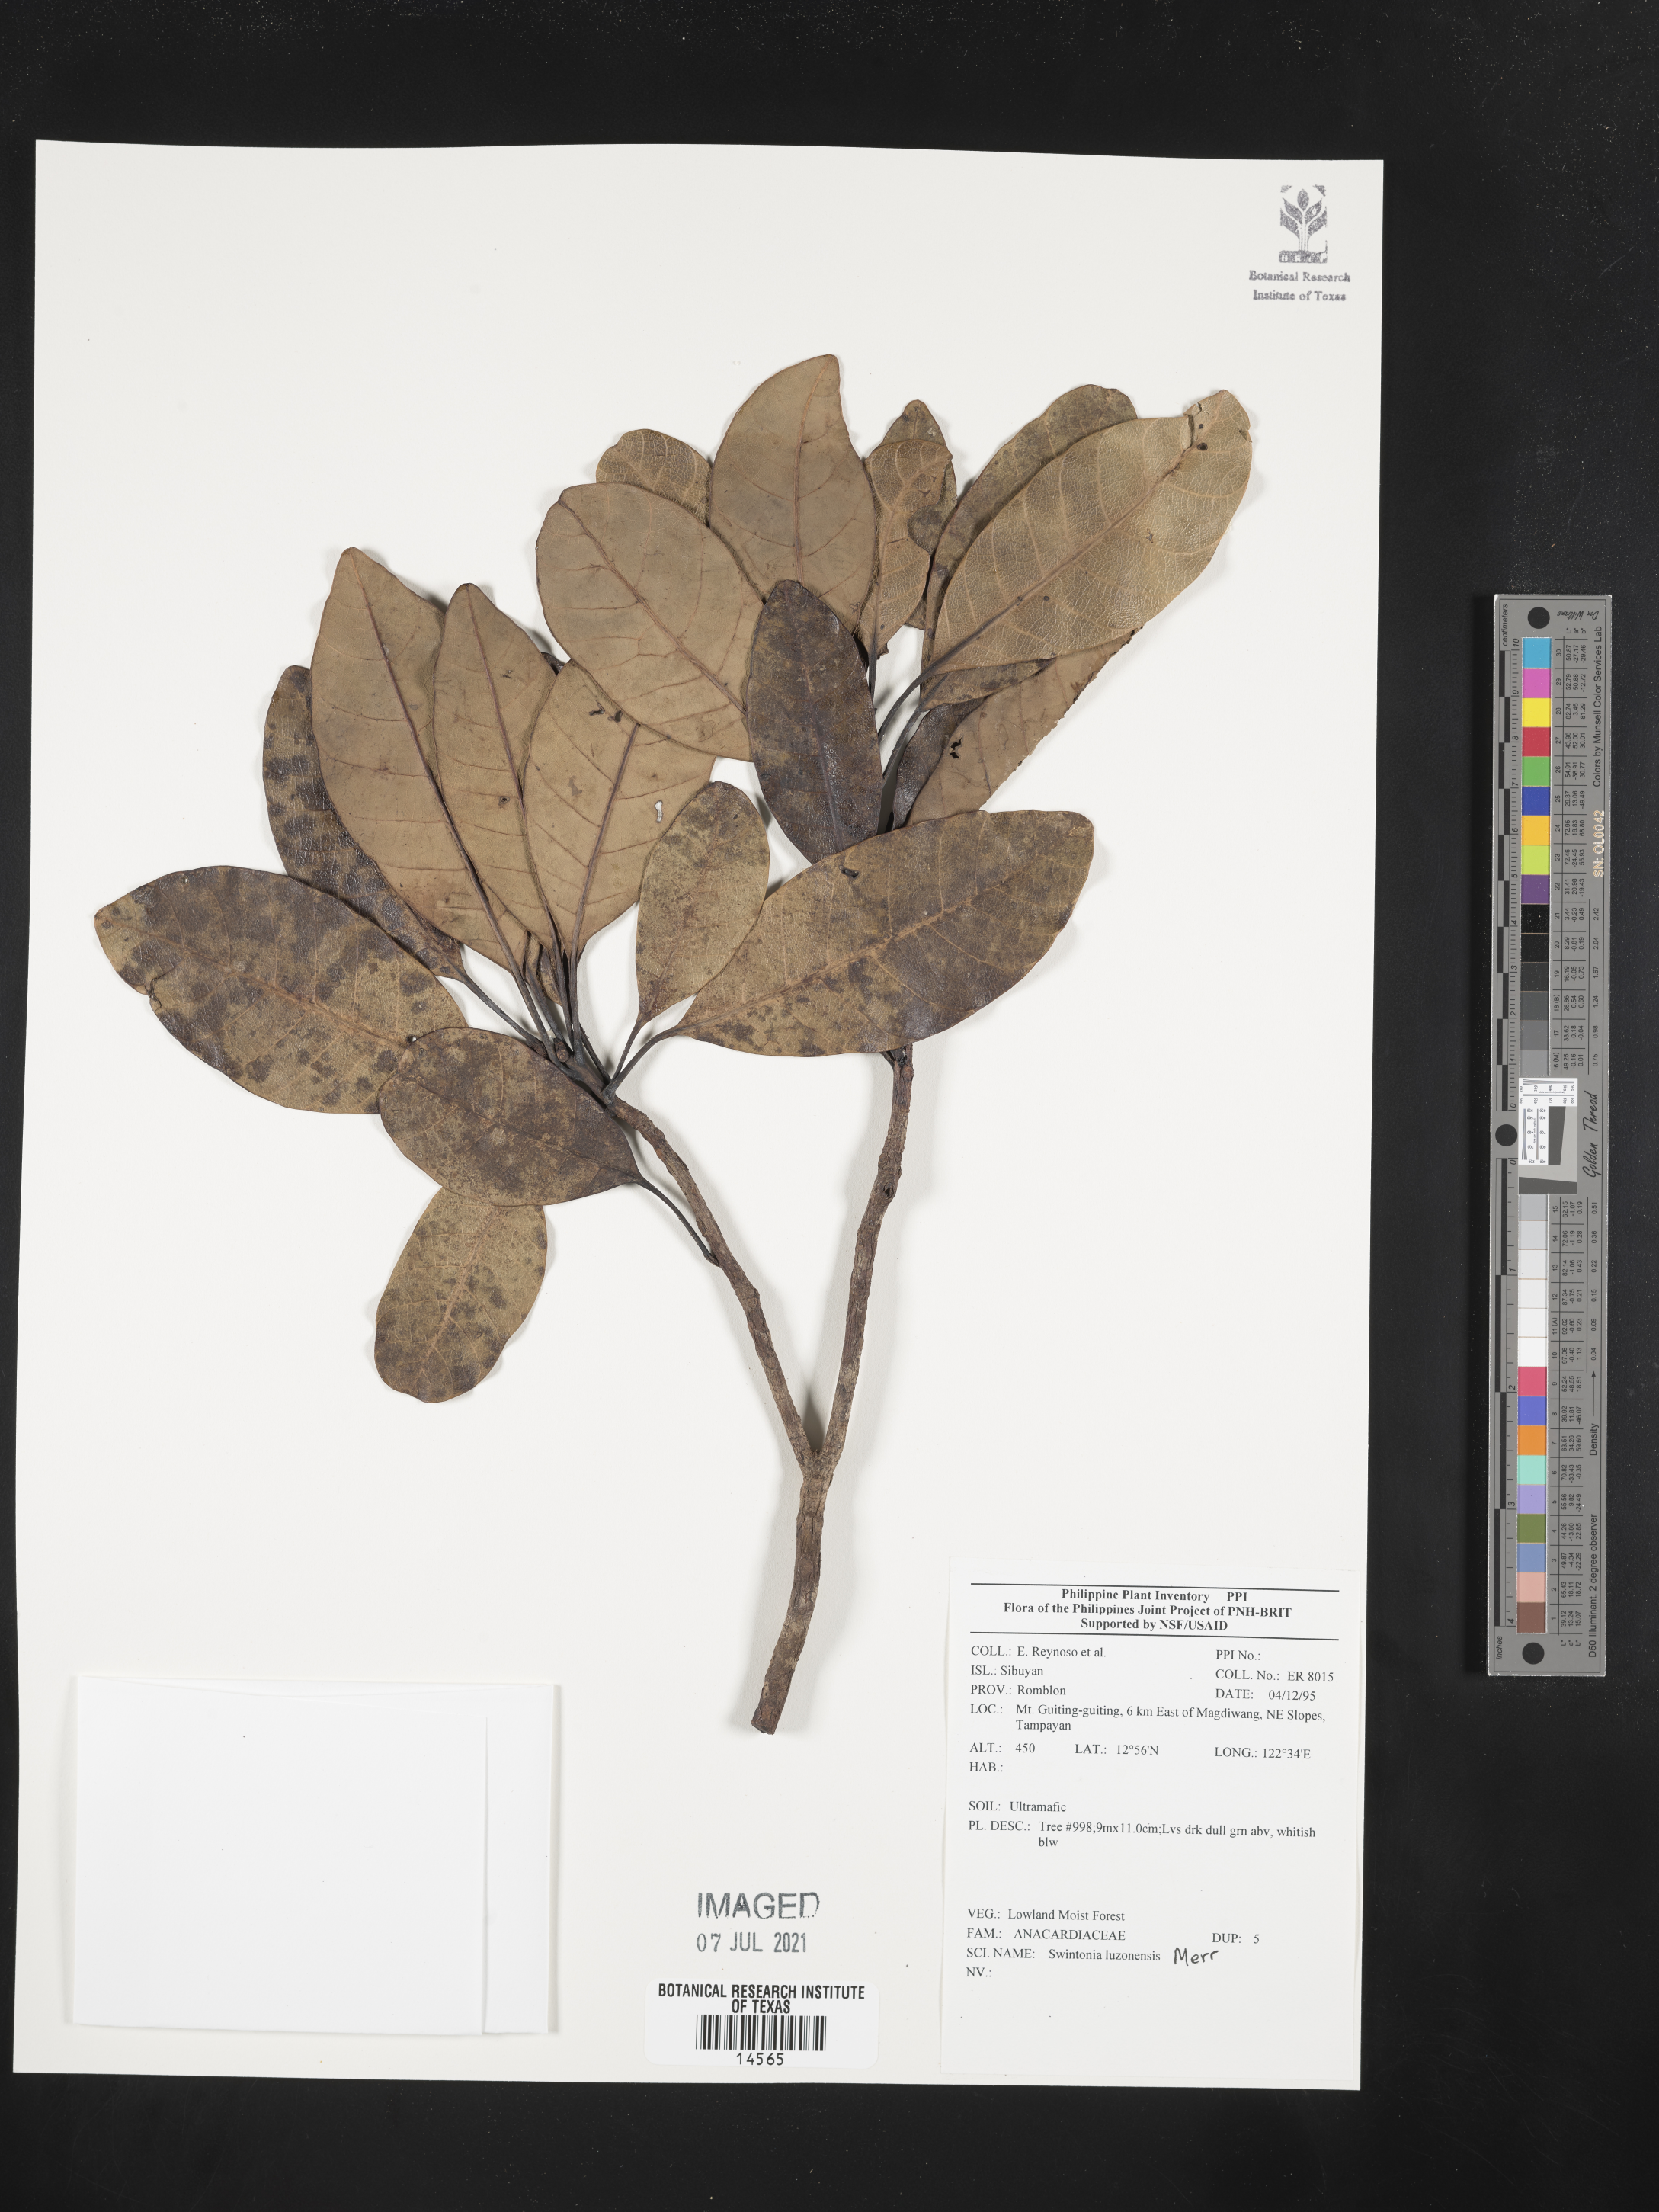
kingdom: Plantae
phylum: Tracheophyta
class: Magnoliopsida
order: Sapindales
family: Anacardiaceae
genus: Swintonia
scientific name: Swintonia acuta
